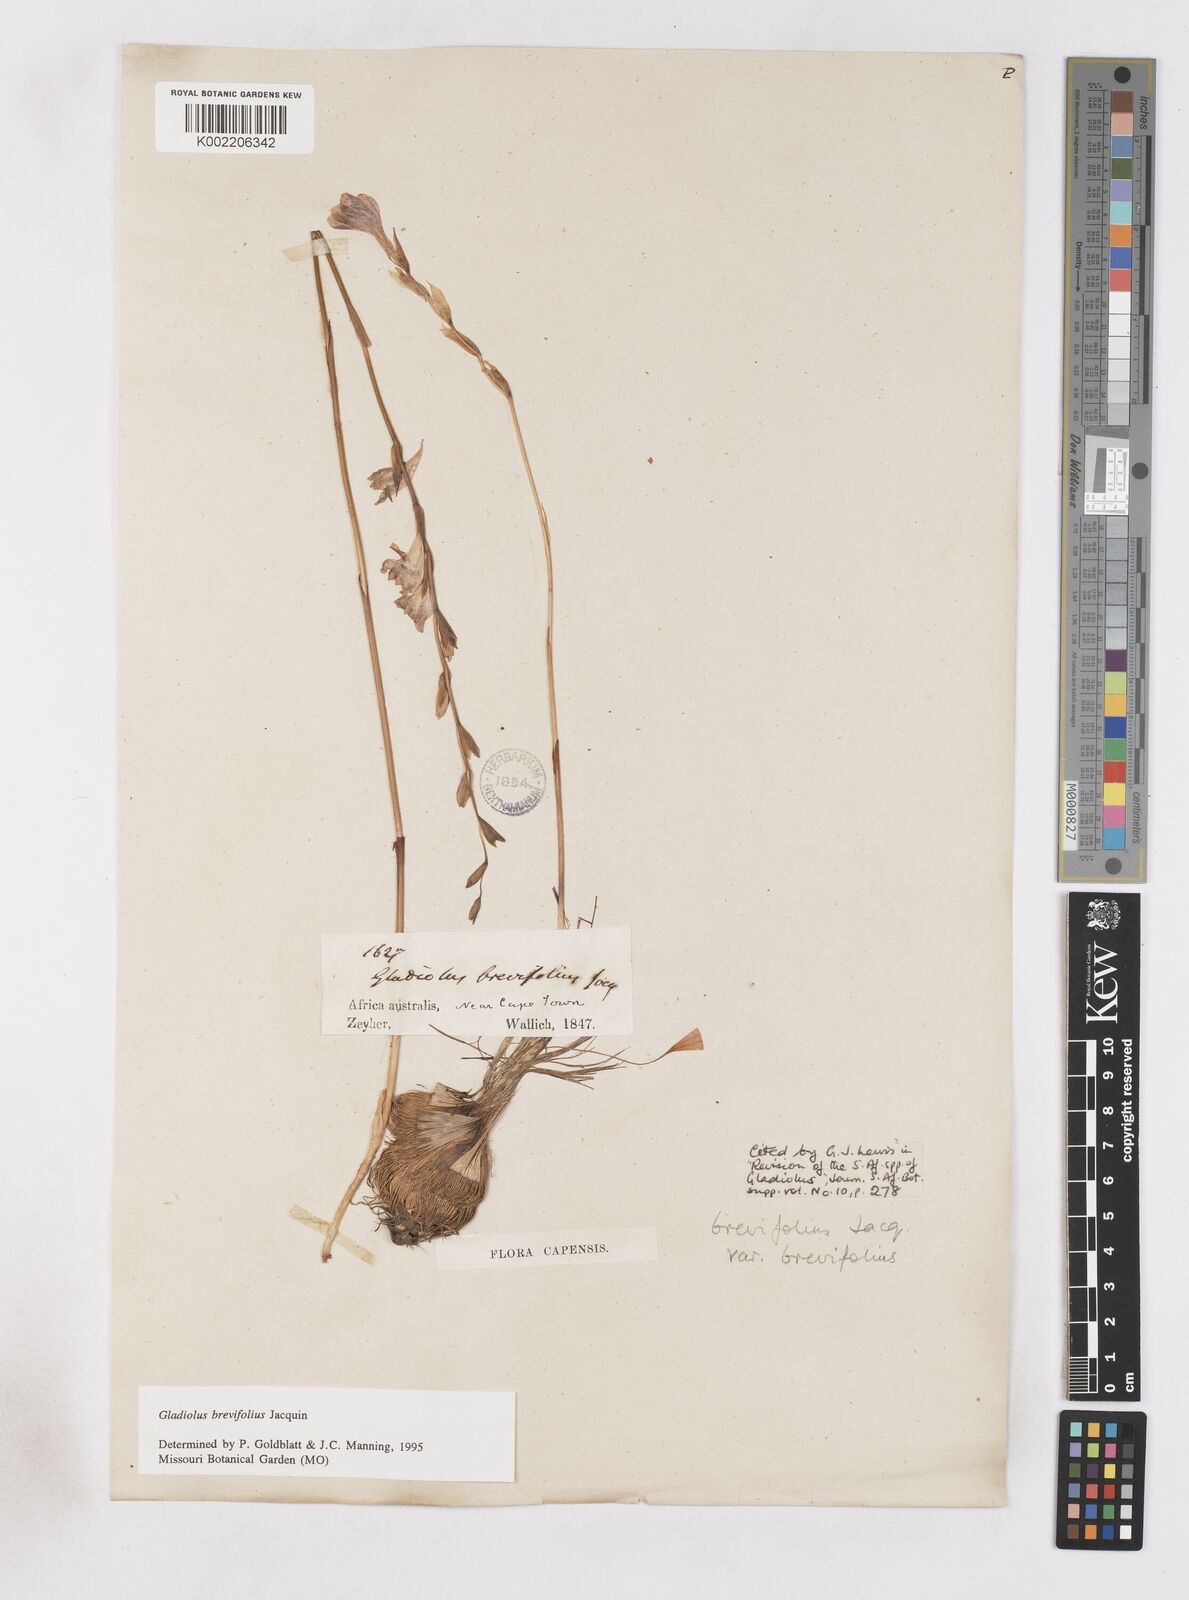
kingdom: Plantae
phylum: Tracheophyta
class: Liliopsida
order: Asparagales
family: Iridaceae
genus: Gladiolus
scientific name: Gladiolus brevifolius
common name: March pypie
